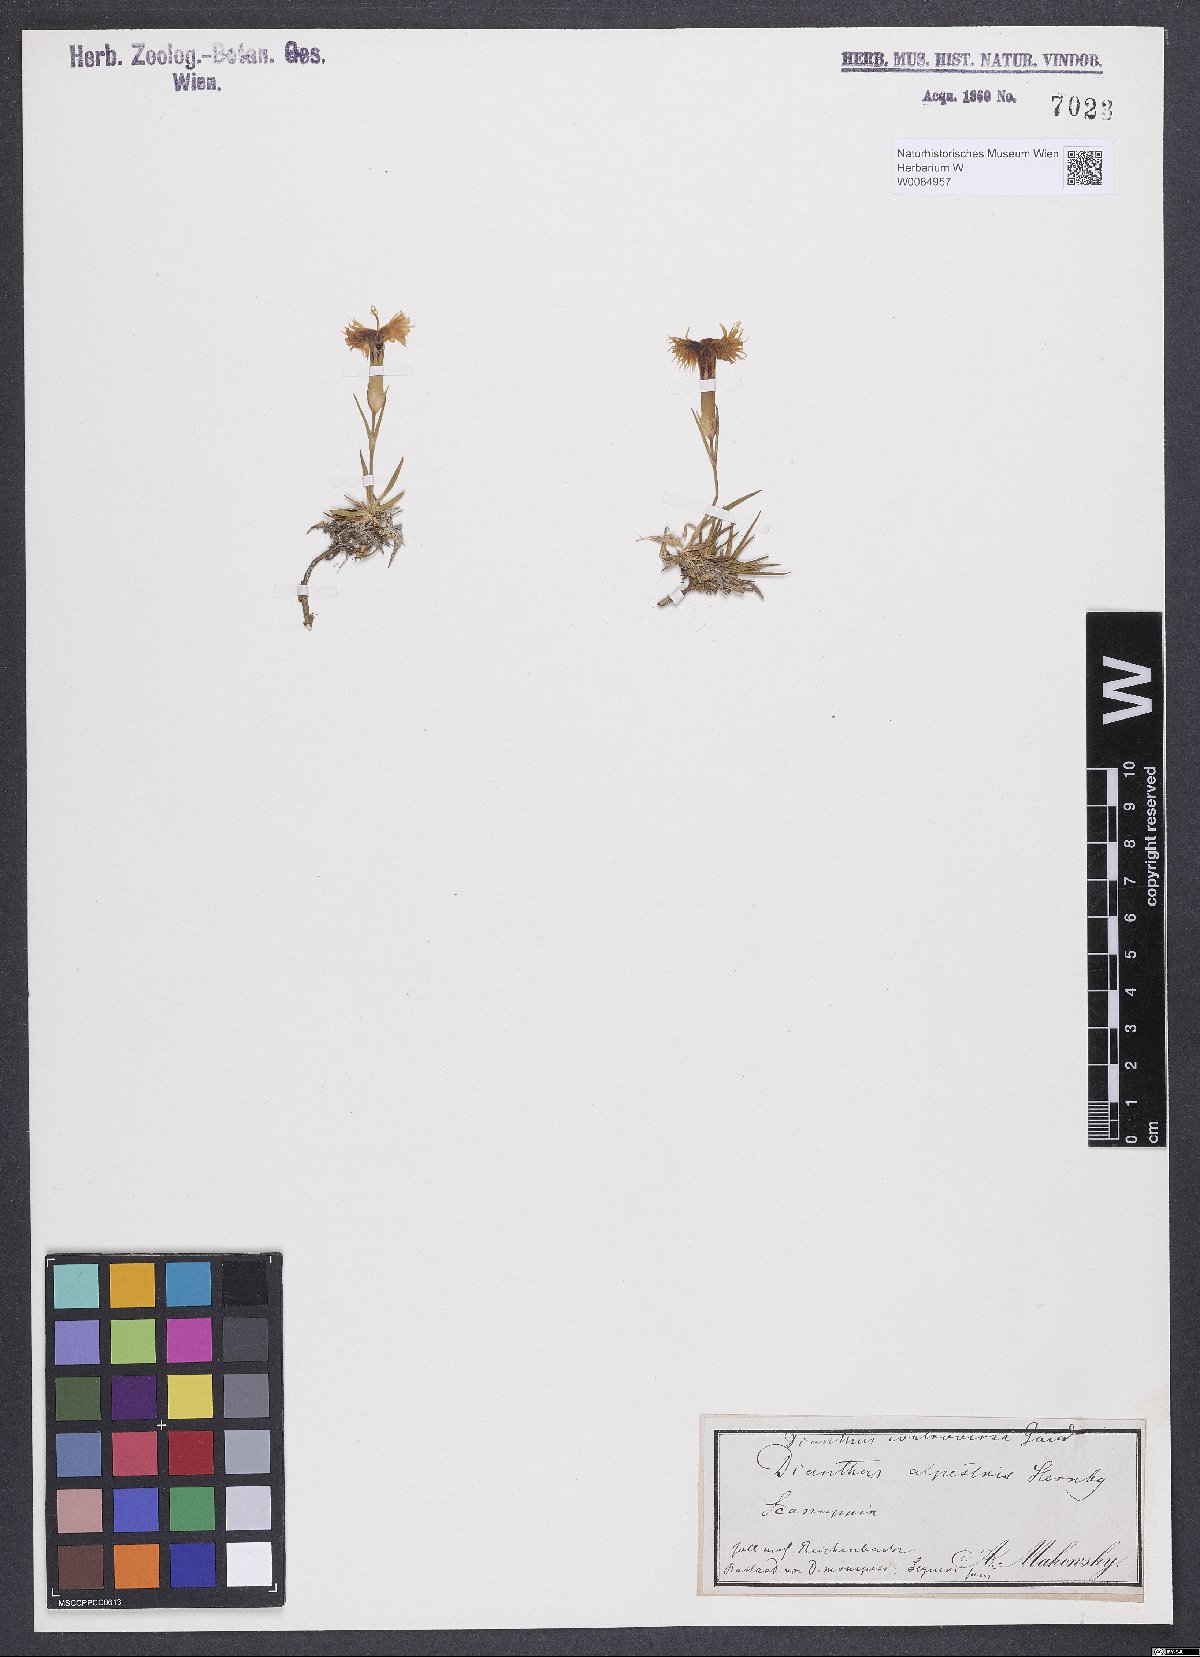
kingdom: Plantae
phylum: Tracheophyta
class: Magnoliopsida
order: Caryophyllales
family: Caryophyllaceae
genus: Dianthus
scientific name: Dianthus hyssopifolius
